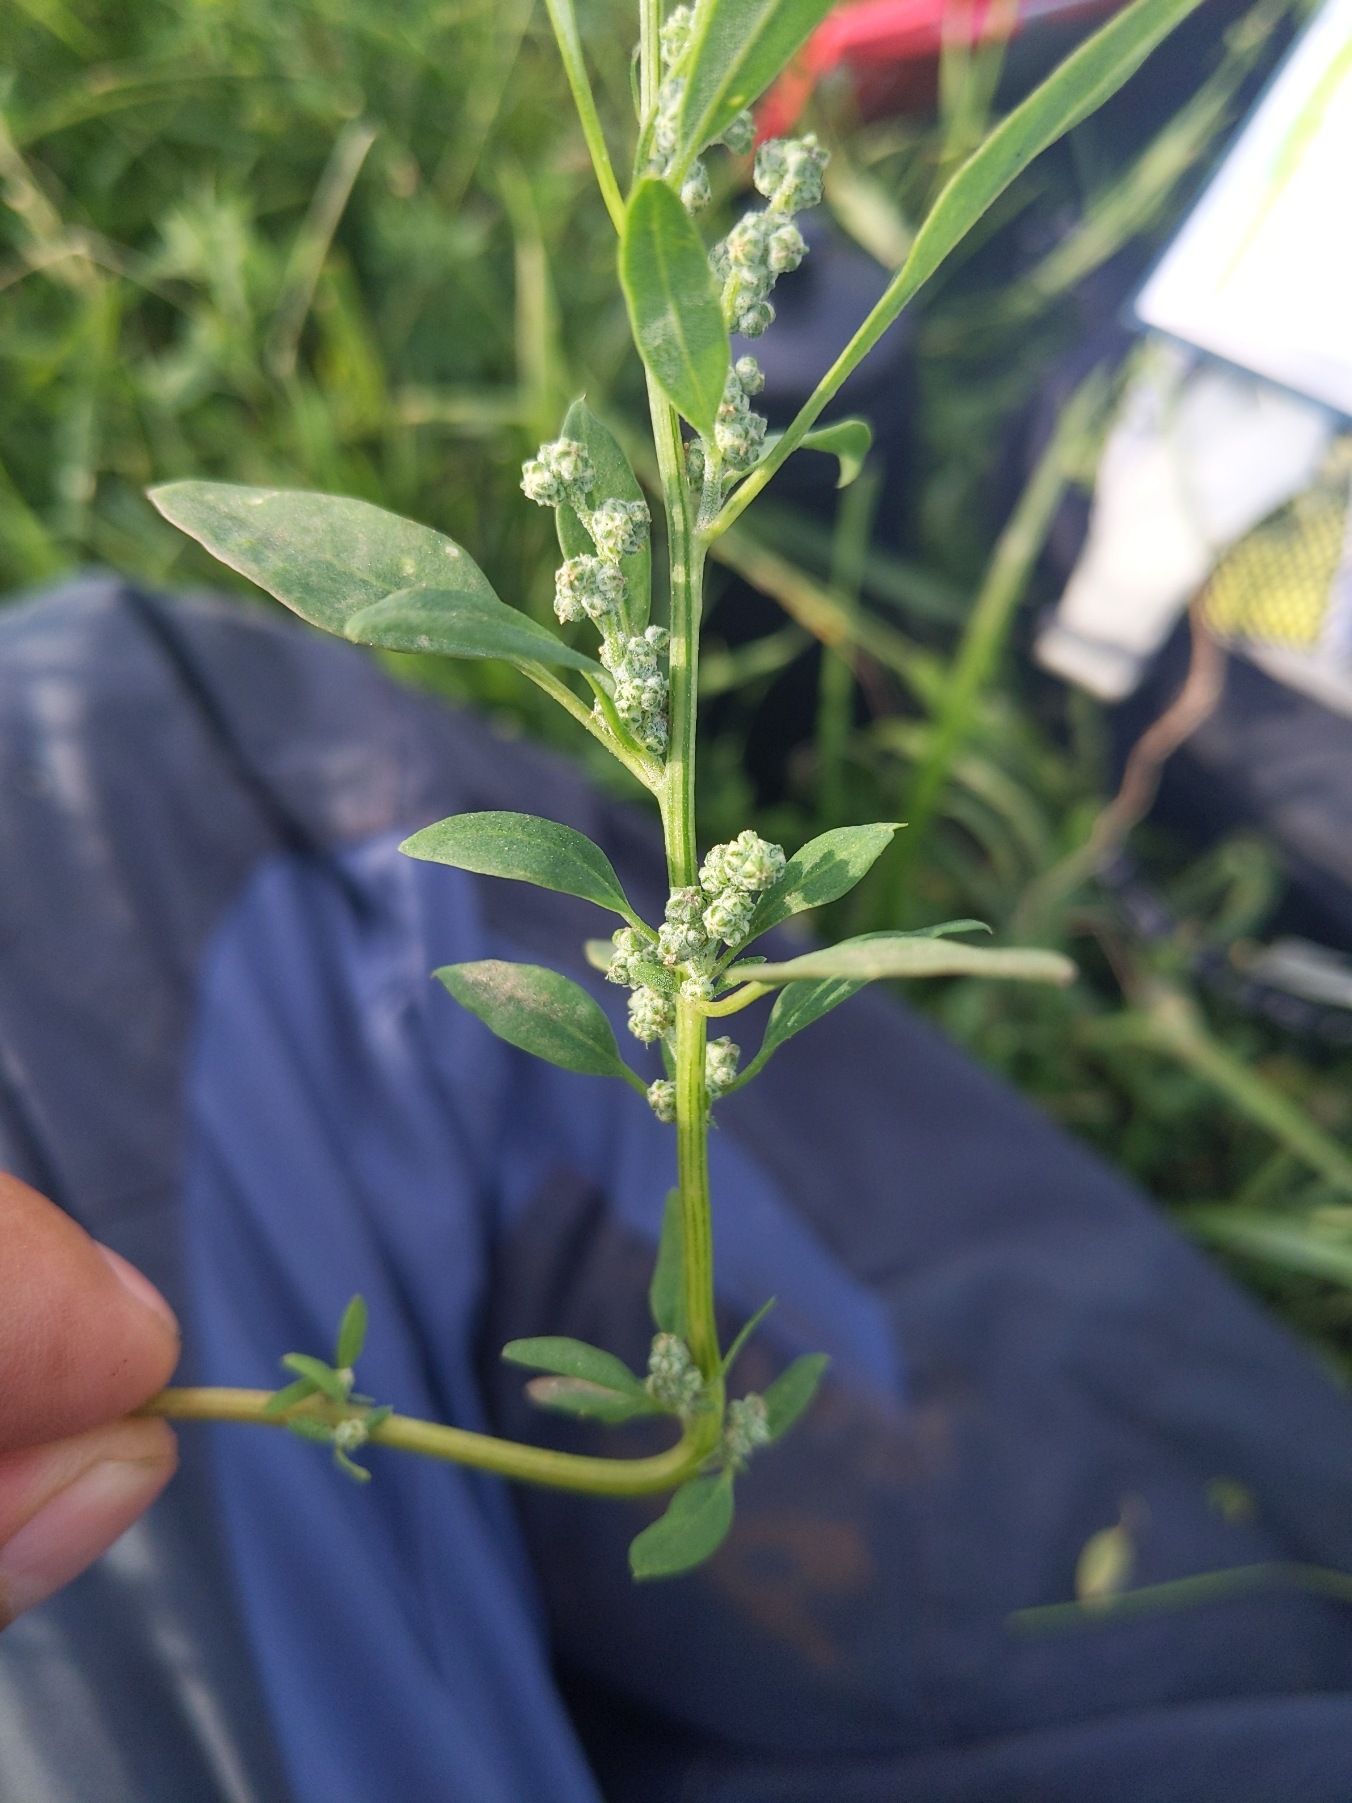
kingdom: Plantae
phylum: Tracheophyta
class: Magnoliopsida
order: Caryophyllales
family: Amaranthaceae
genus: Chenopodium
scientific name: Chenopodium album
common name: Hvidmelet gåsefod
